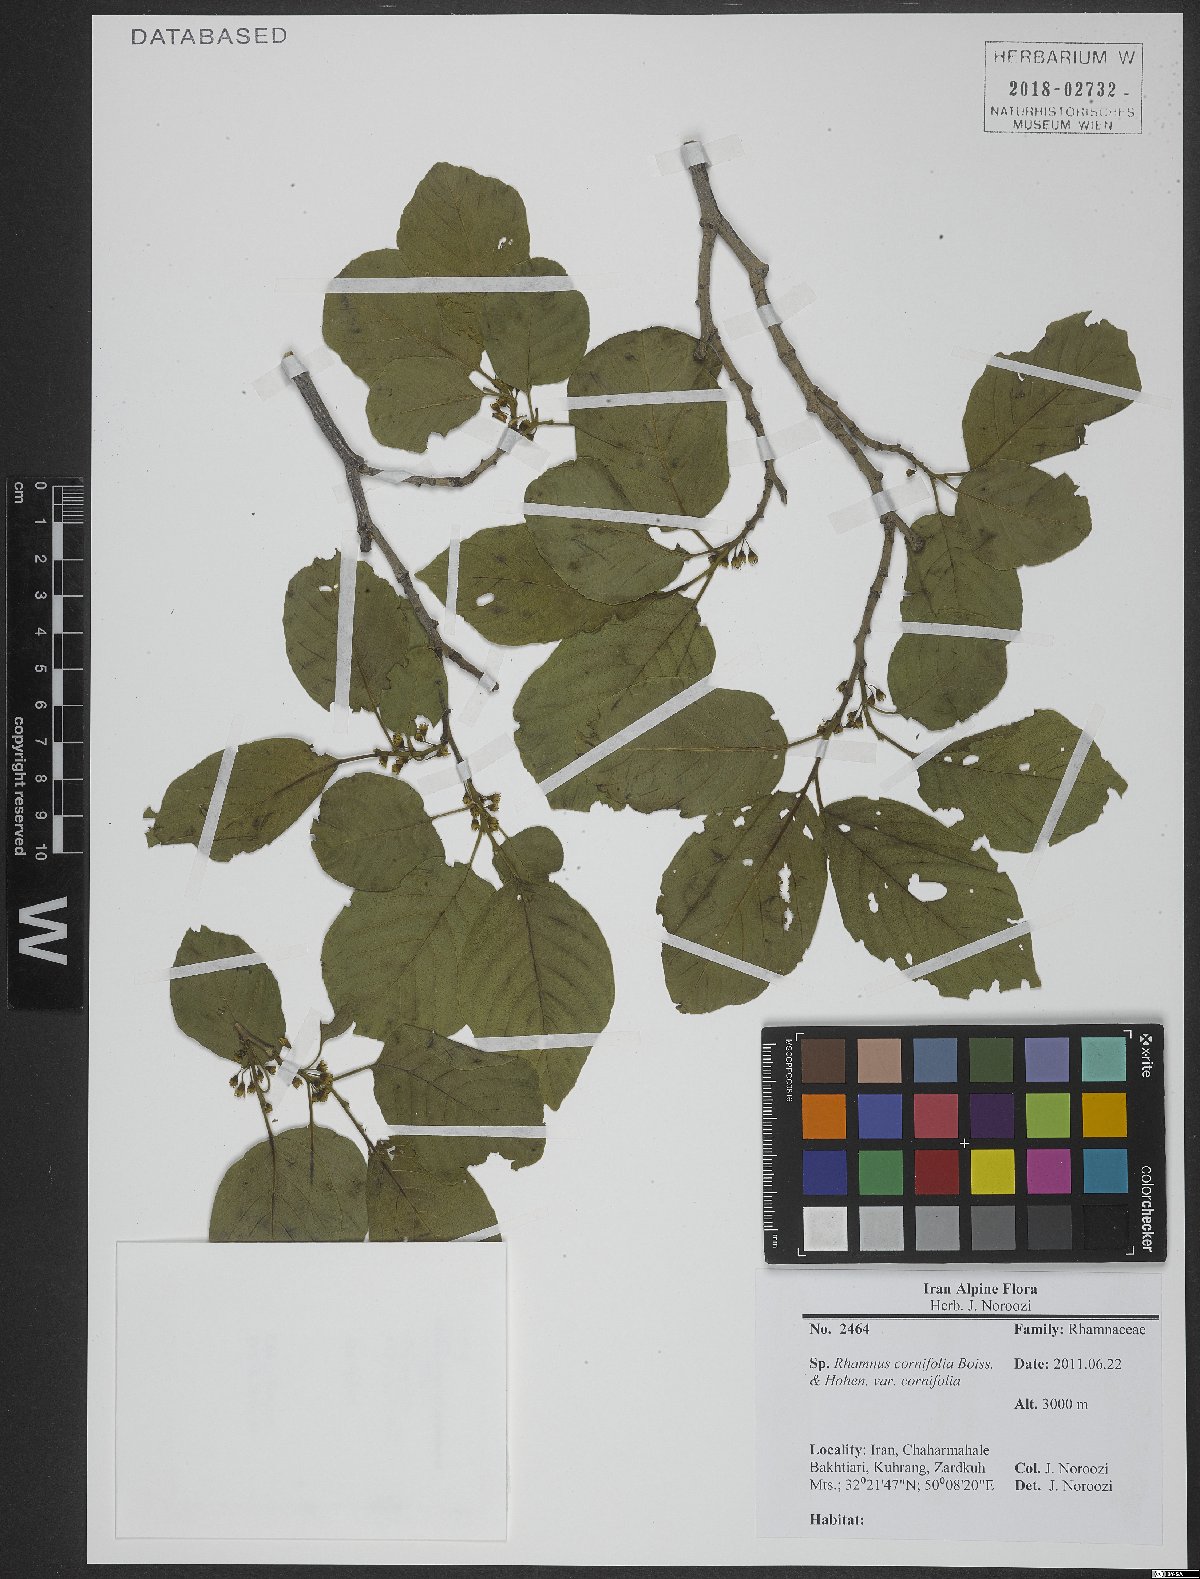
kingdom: Plantae
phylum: Tracheophyta
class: Magnoliopsida
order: Rosales
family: Rhamnaceae
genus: Atadinus
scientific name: Atadinus cornifolius
